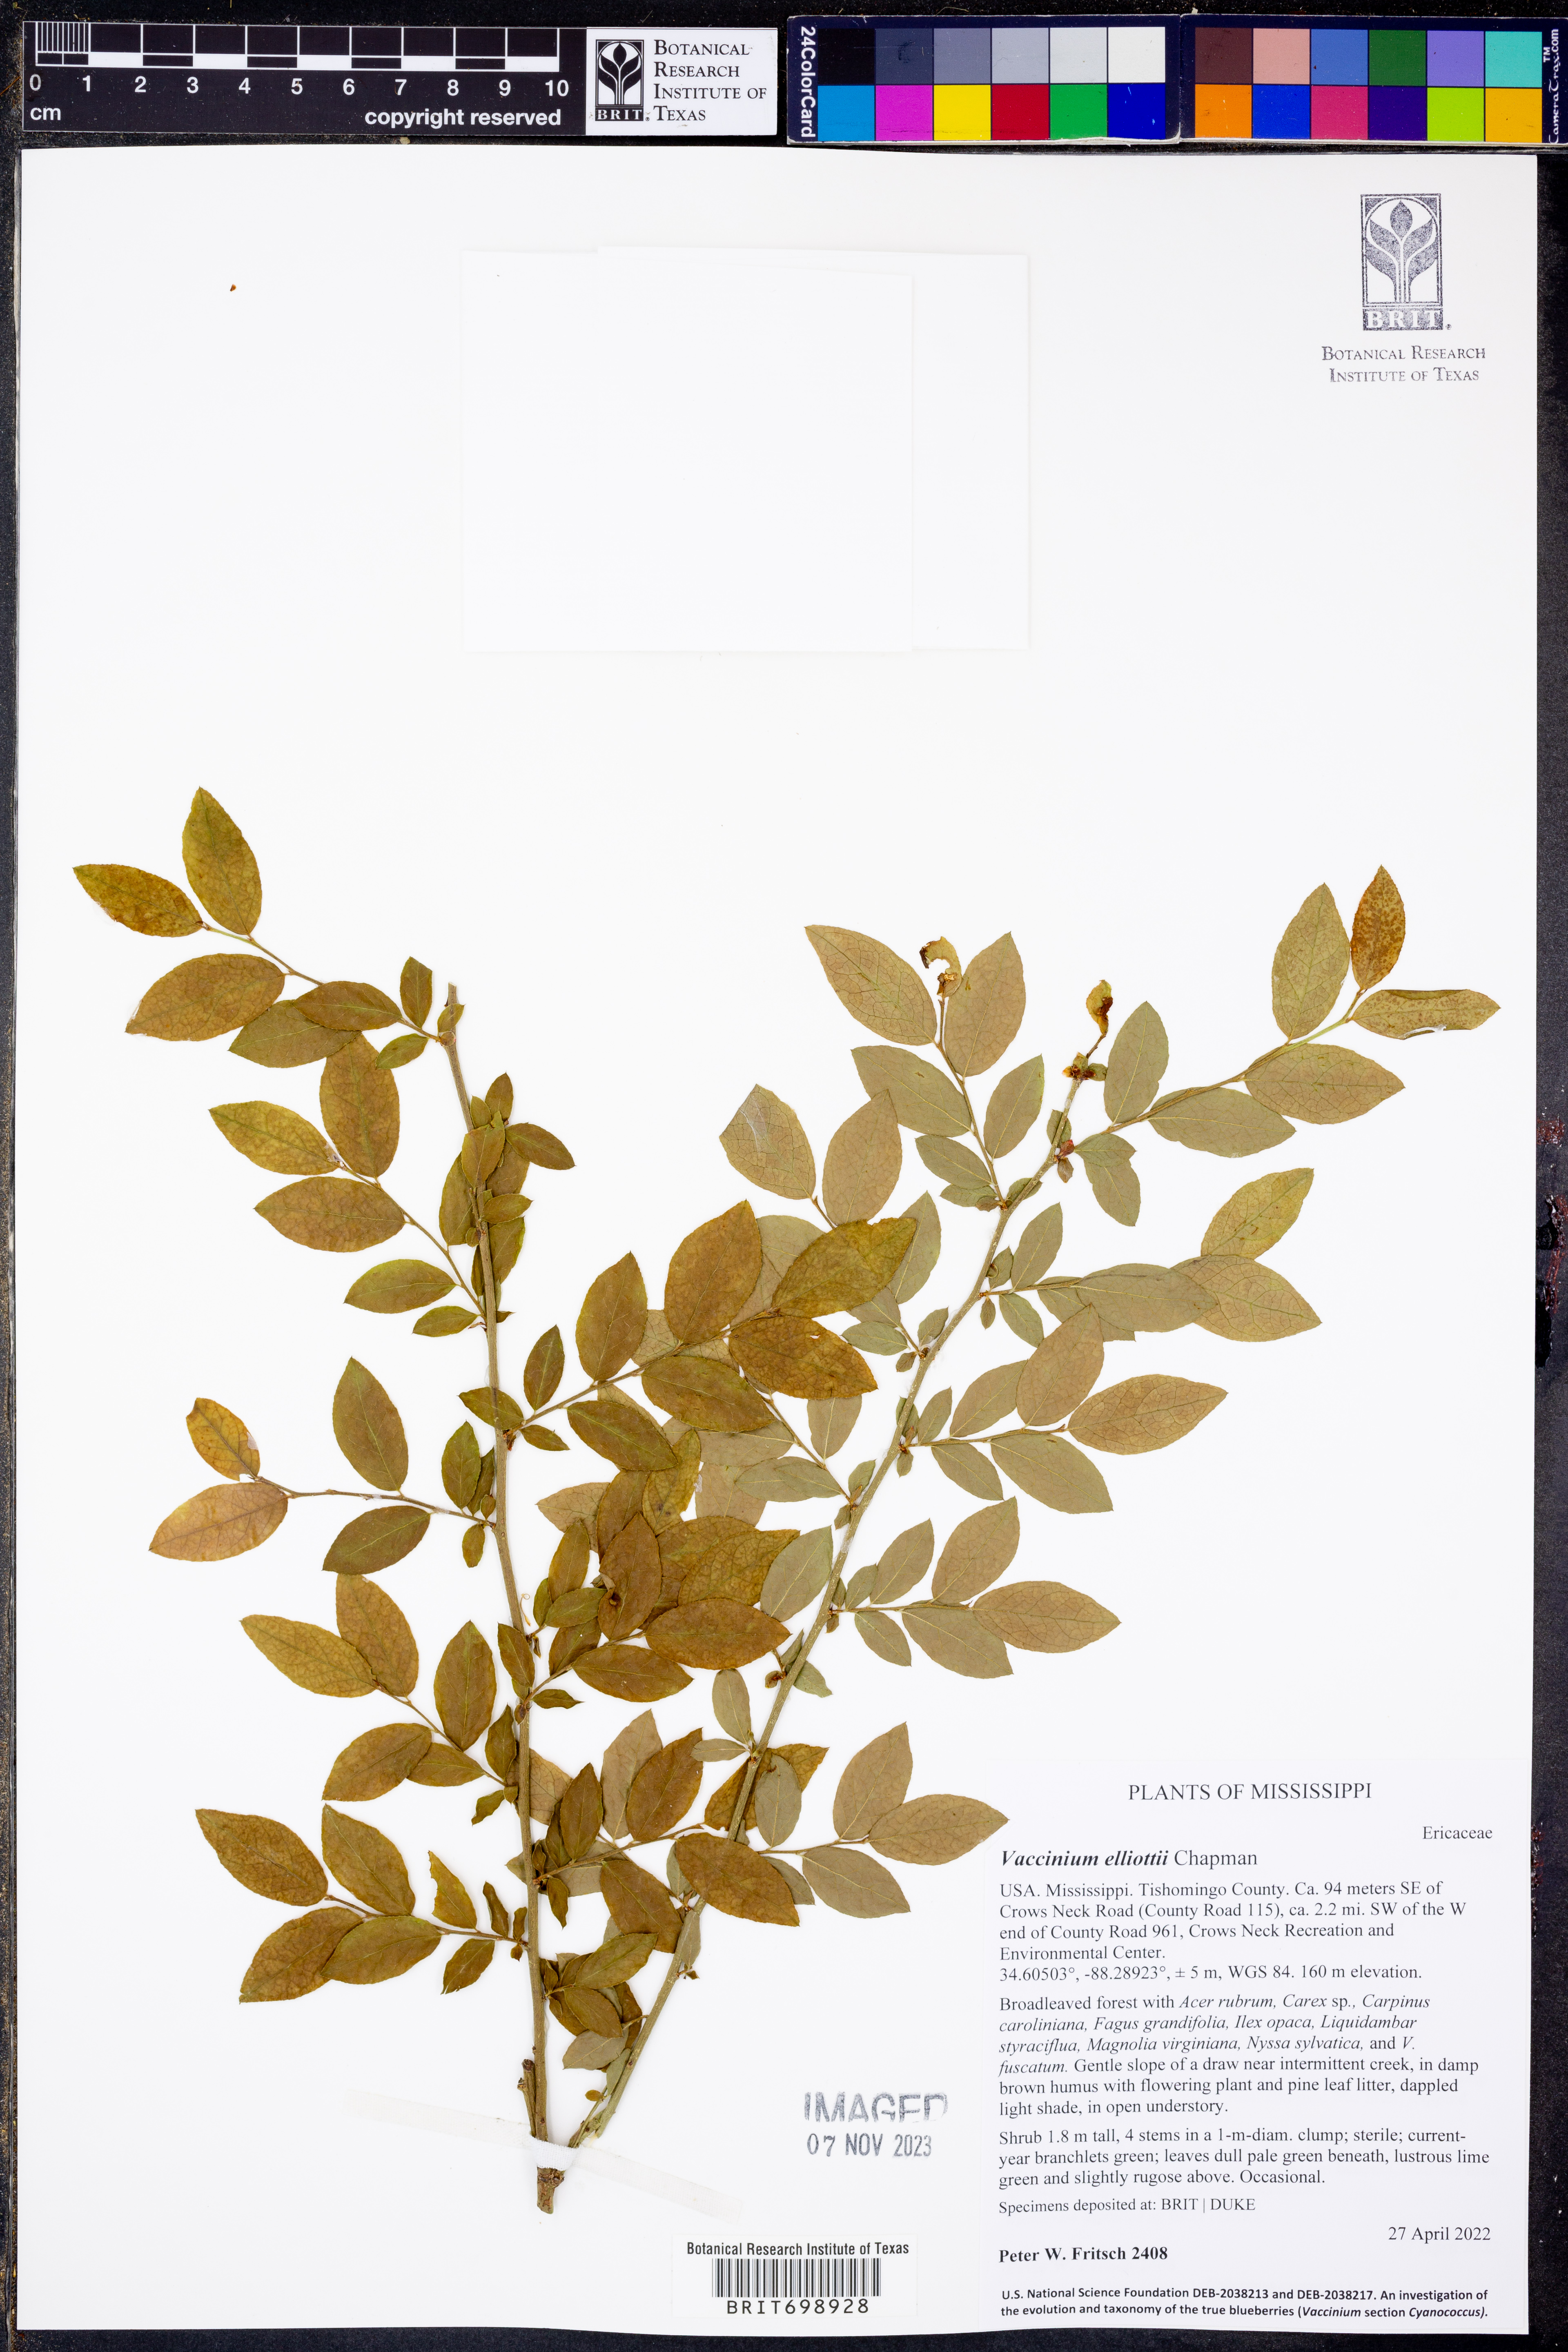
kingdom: Plantae
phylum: Tracheophyta
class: Magnoliopsida
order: Ericales
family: Ericaceae
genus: Vaccinium
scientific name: Vaccinium corymbosum
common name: Blueberry
